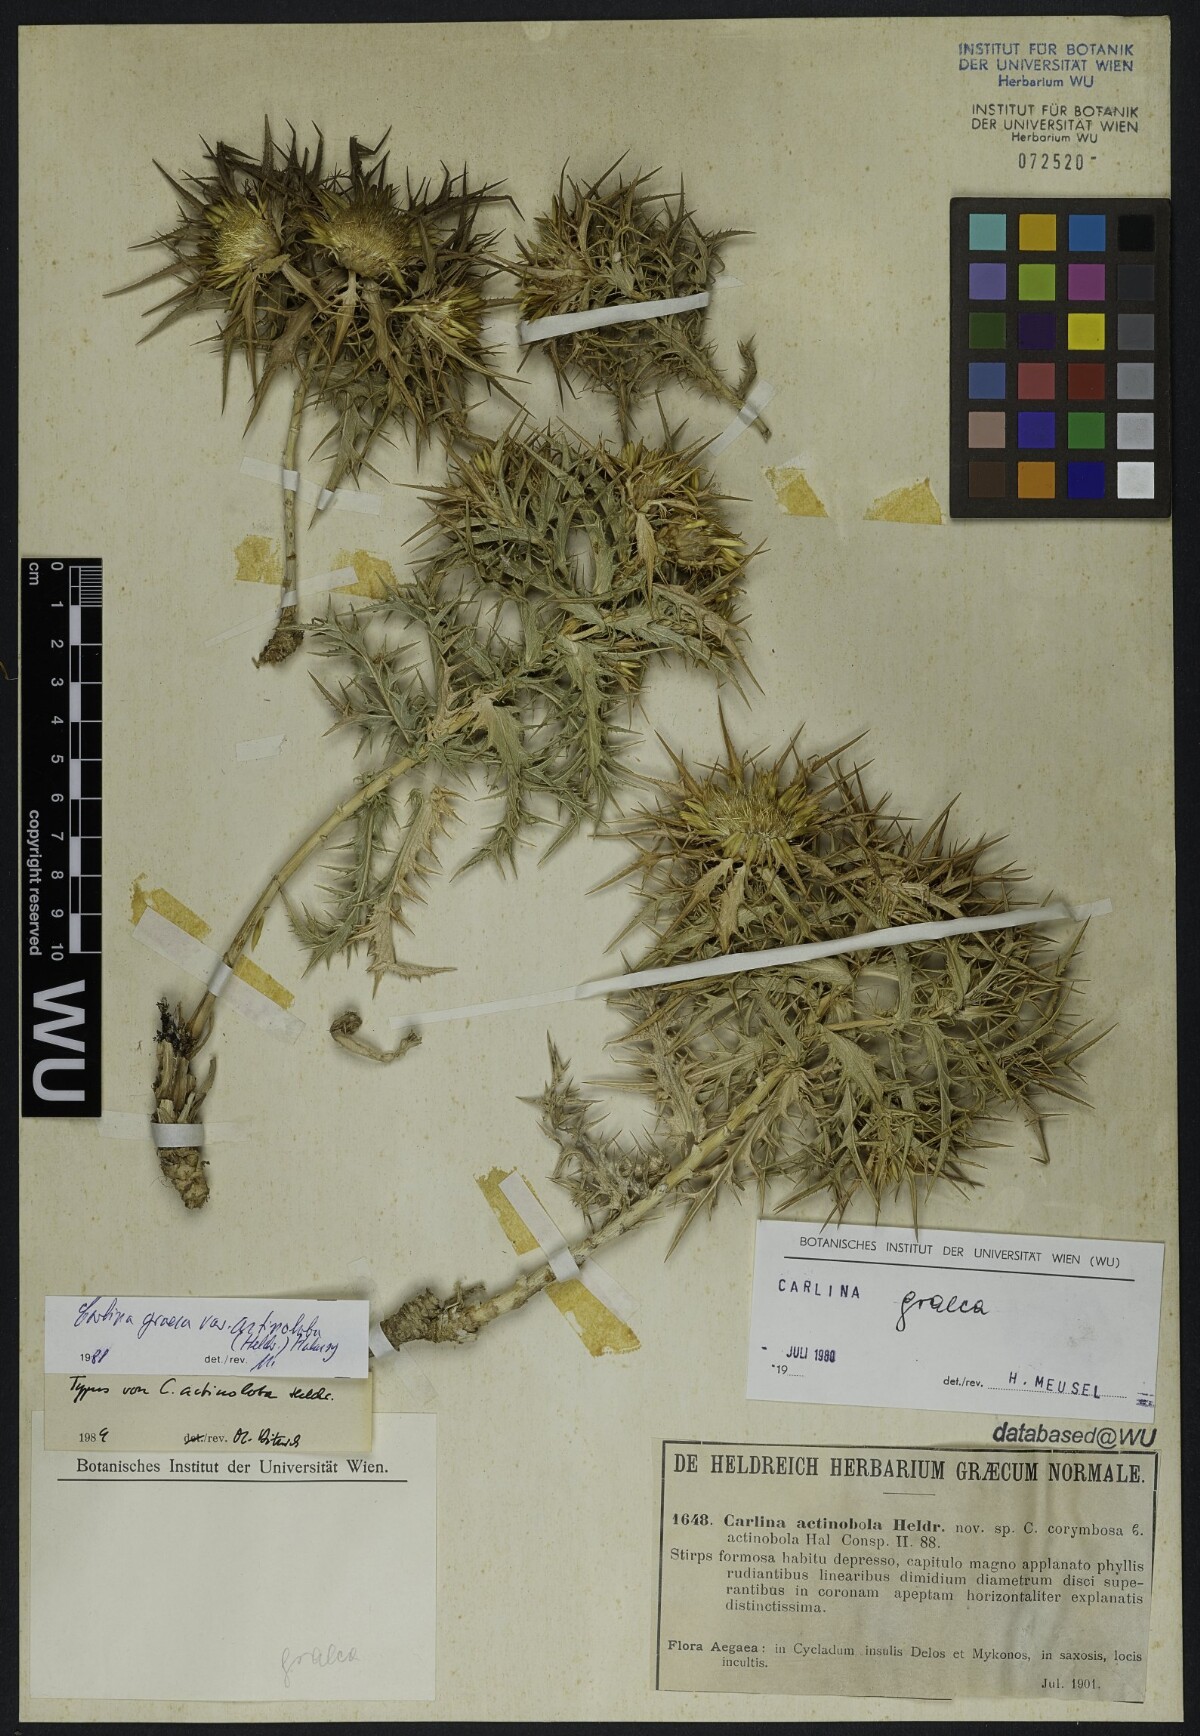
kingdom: Plantae
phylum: Tracheophyta
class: Magnoliopsida
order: Asterales
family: Asteraceae
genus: Carlina
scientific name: Carlina graeca
